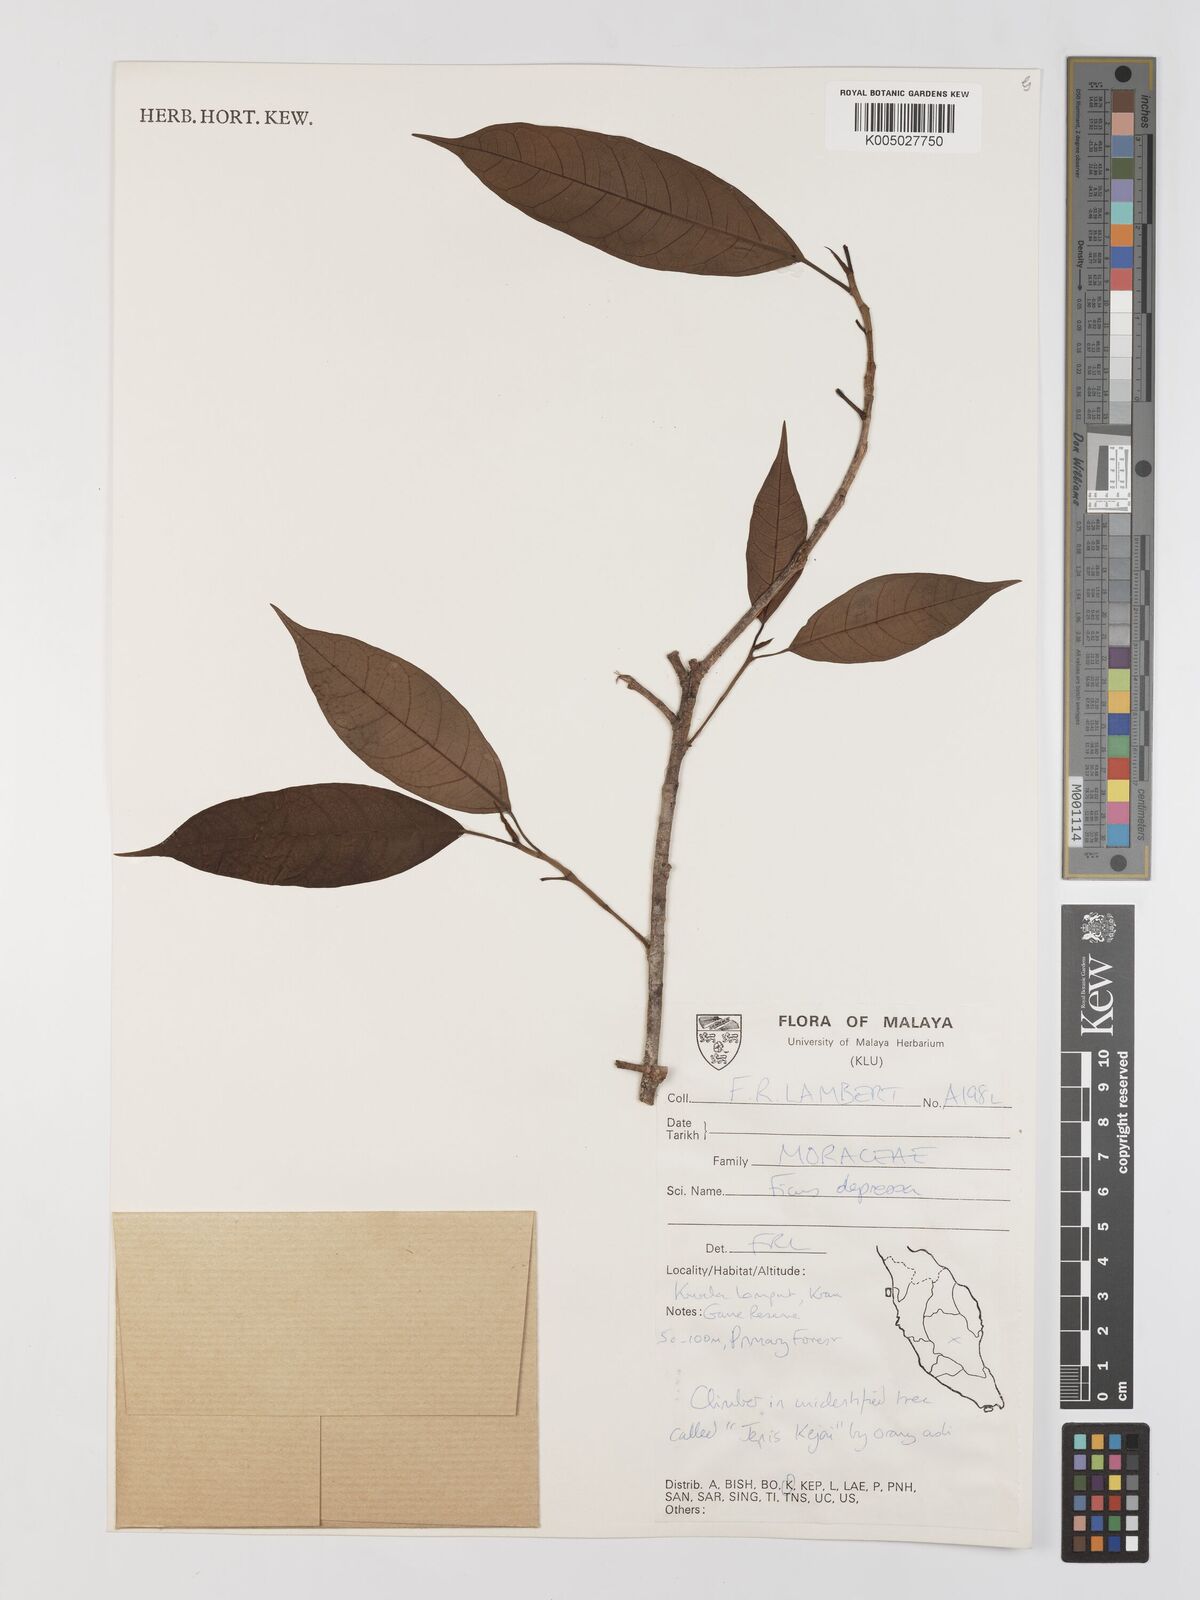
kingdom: Plantae
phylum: Tracheophyta
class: Magnoliopsida
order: Rosales
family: Moraceae
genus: Ficus
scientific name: Ficus
